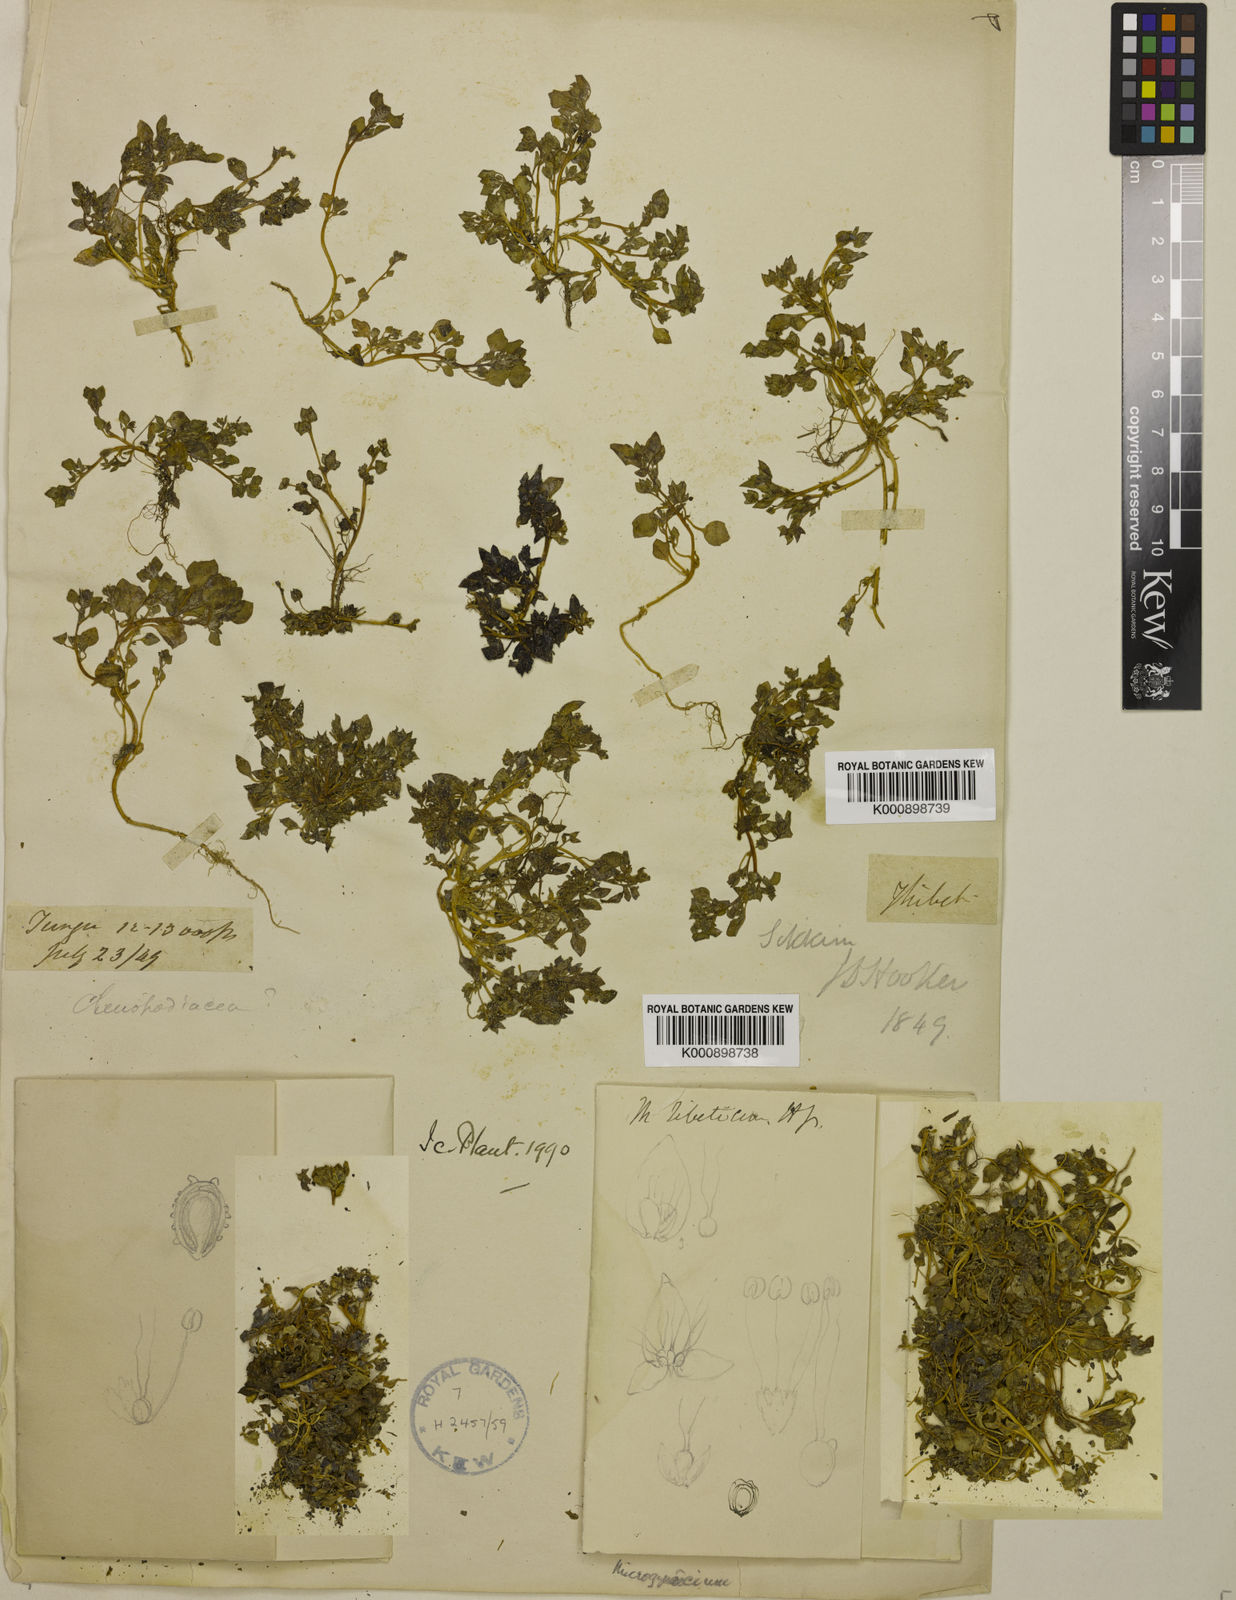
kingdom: Plantae
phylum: Tracheophyta
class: Magnoliopsida
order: Caryophyllales
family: Amaranthaceae
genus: Microgynoecium
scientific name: Microgynoecium tibeticum
